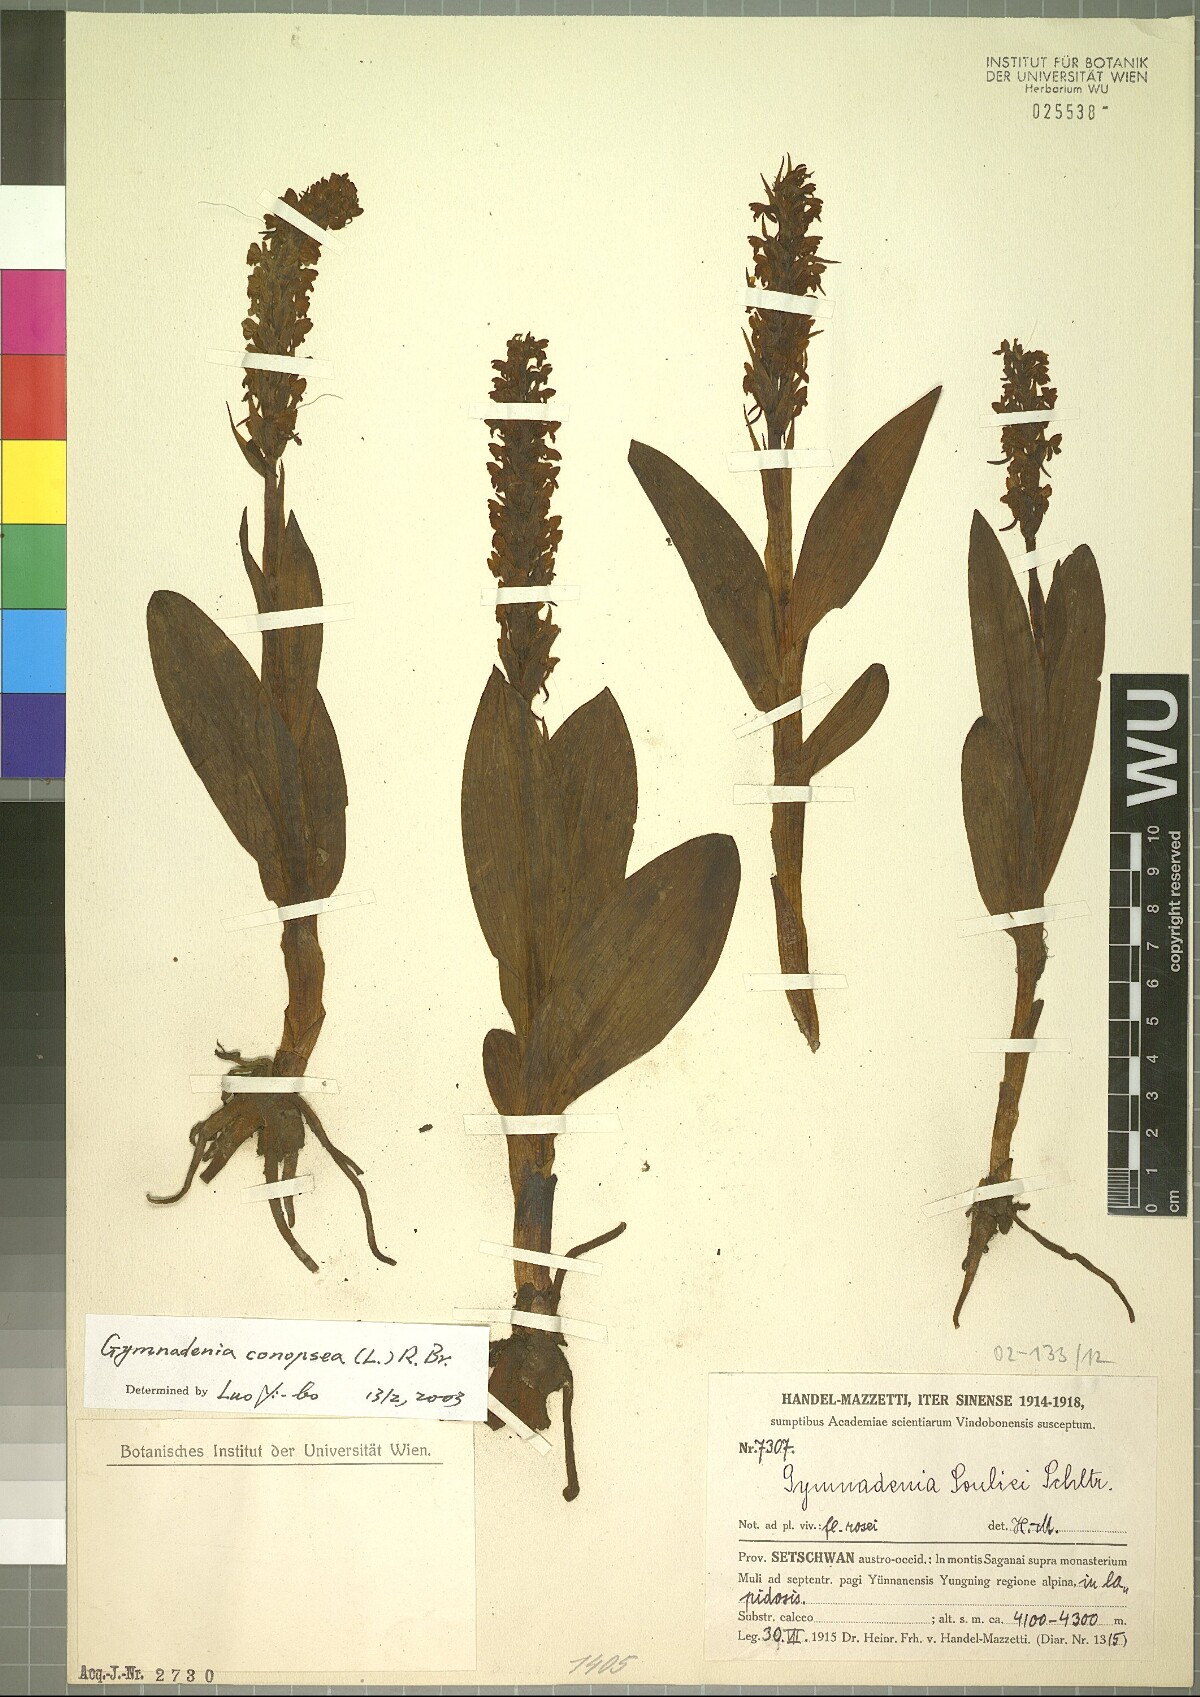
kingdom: Plantae
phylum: Tracheophyta
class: Liliopsida
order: Asparagales
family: Orchidaceae
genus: Gymnadenia
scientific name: Gymnadenia conopsea
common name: Fragrant orchid
